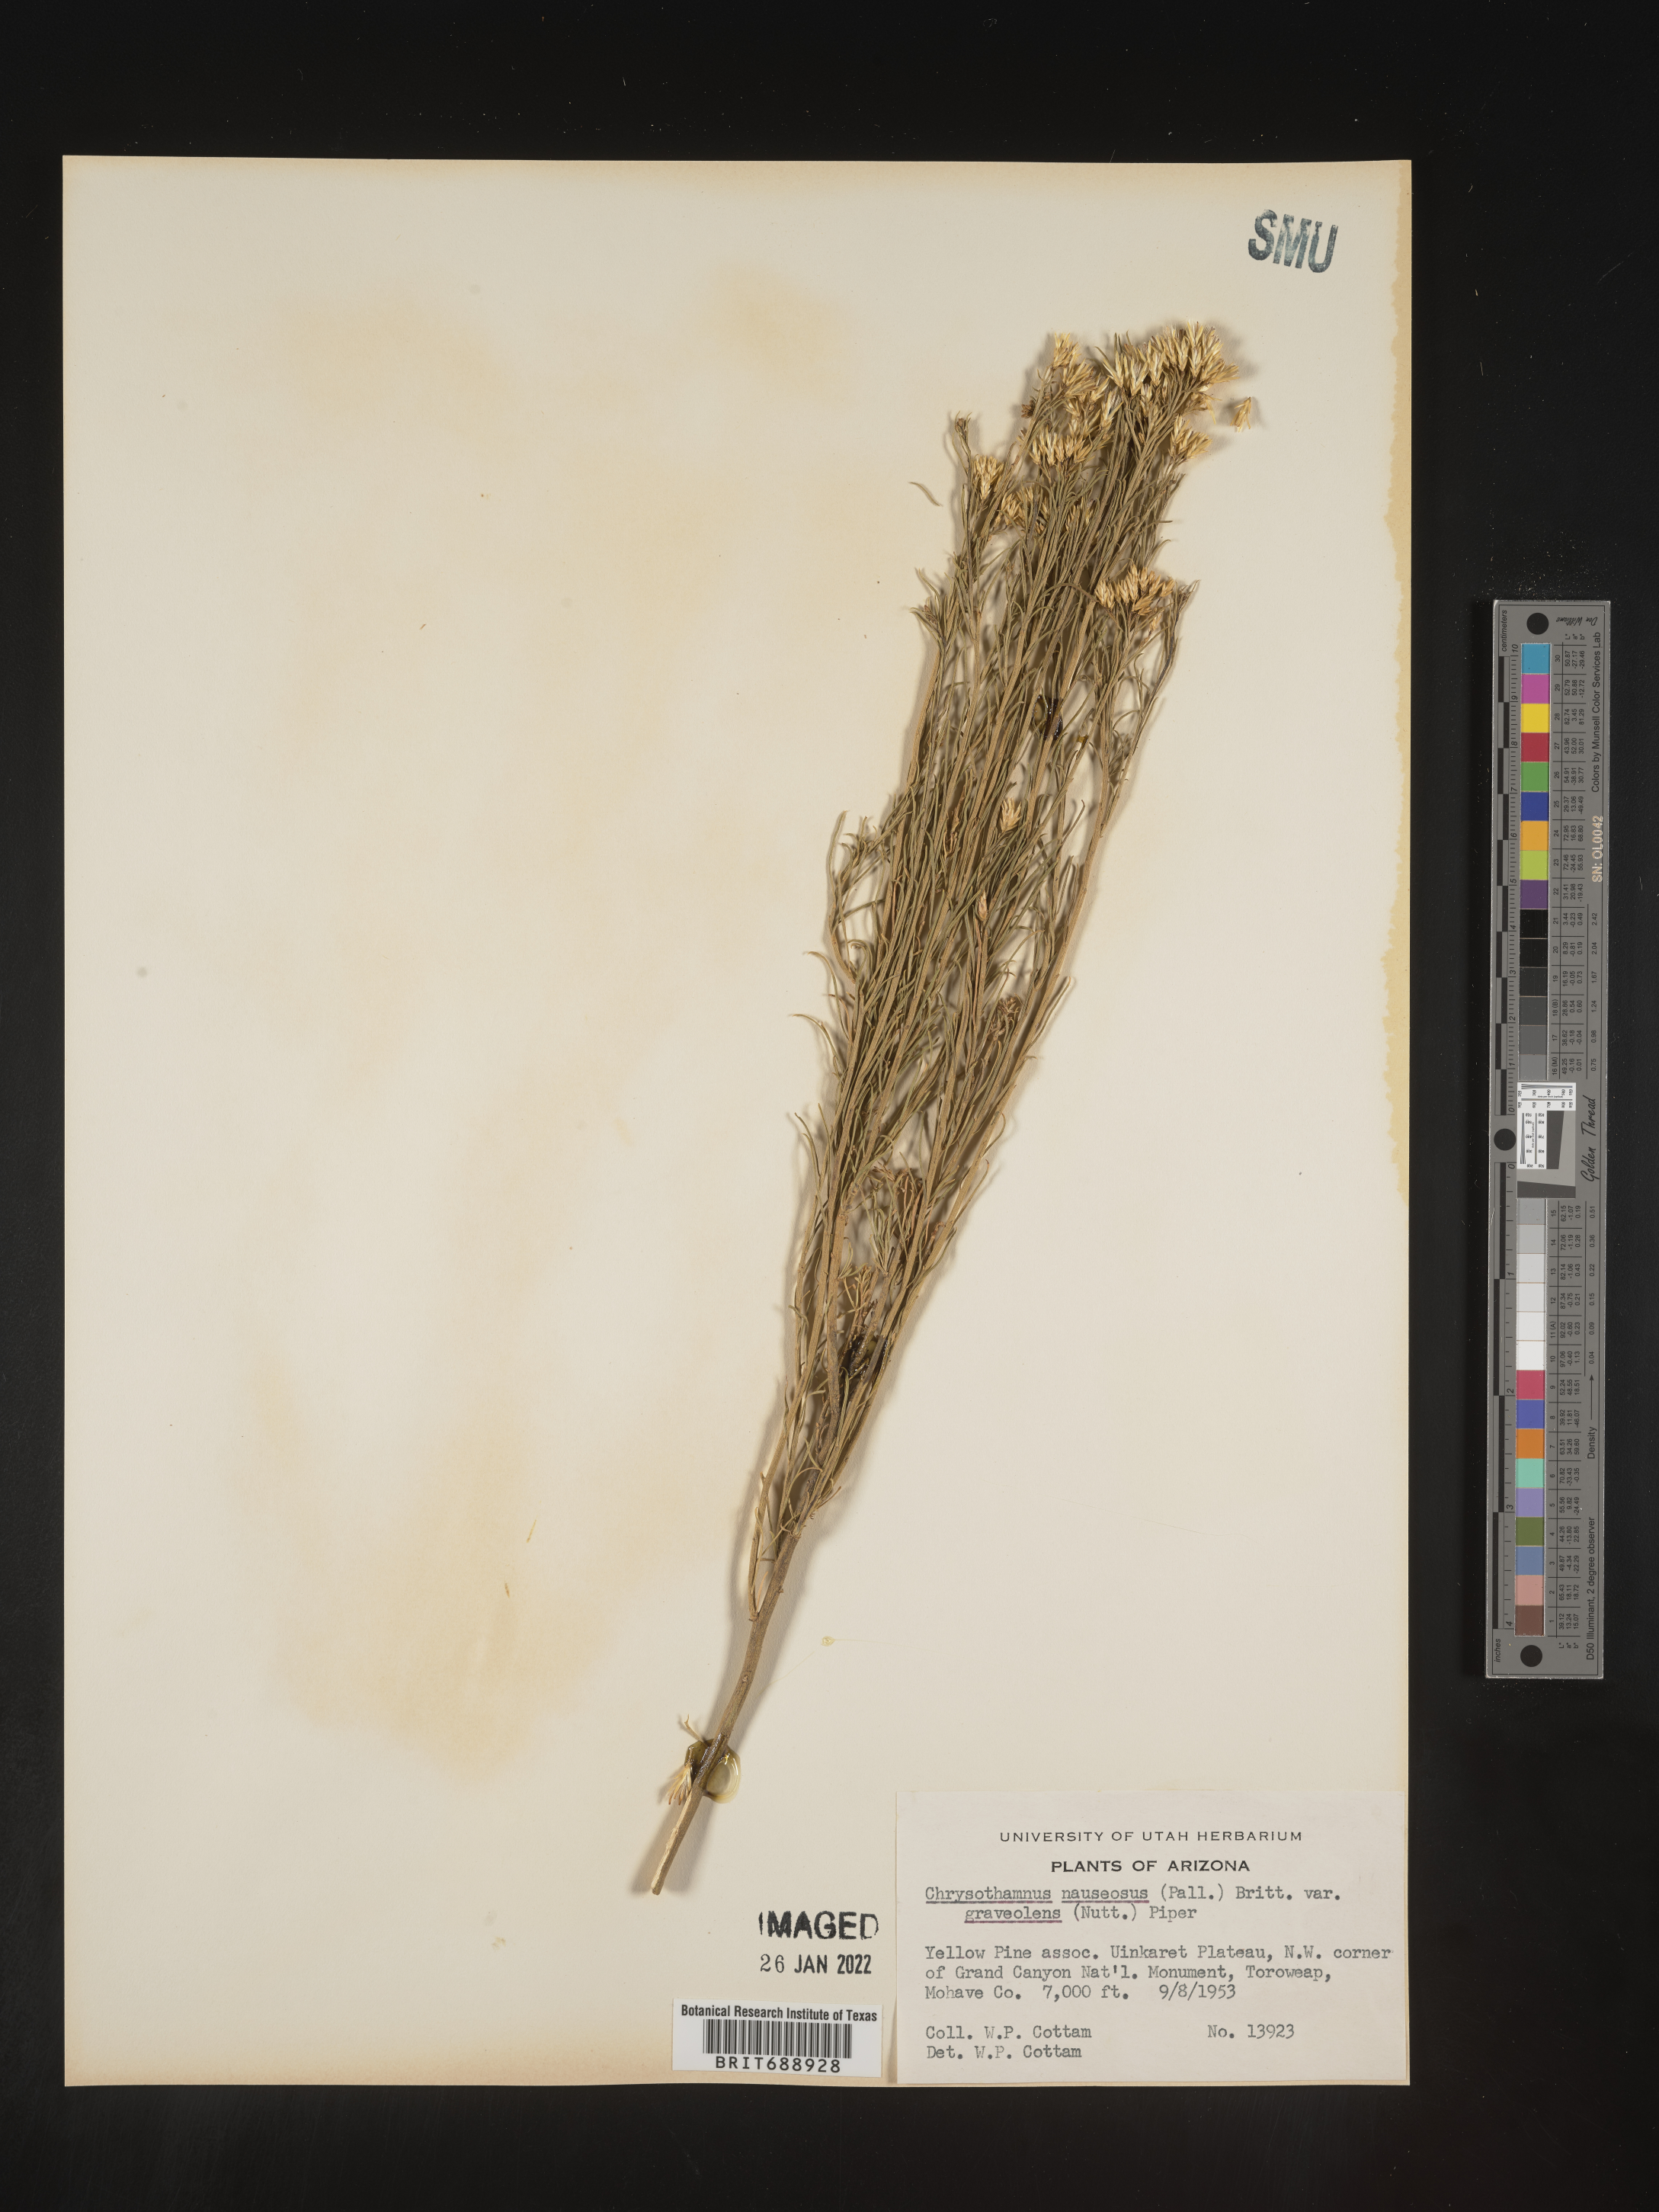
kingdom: Plantae
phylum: Tracheophyta
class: Magnoliopsida
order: Asterales
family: Asteraceae
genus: Ericameria
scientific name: Ericameria nauseosa
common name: Rubber rabbitbrush
